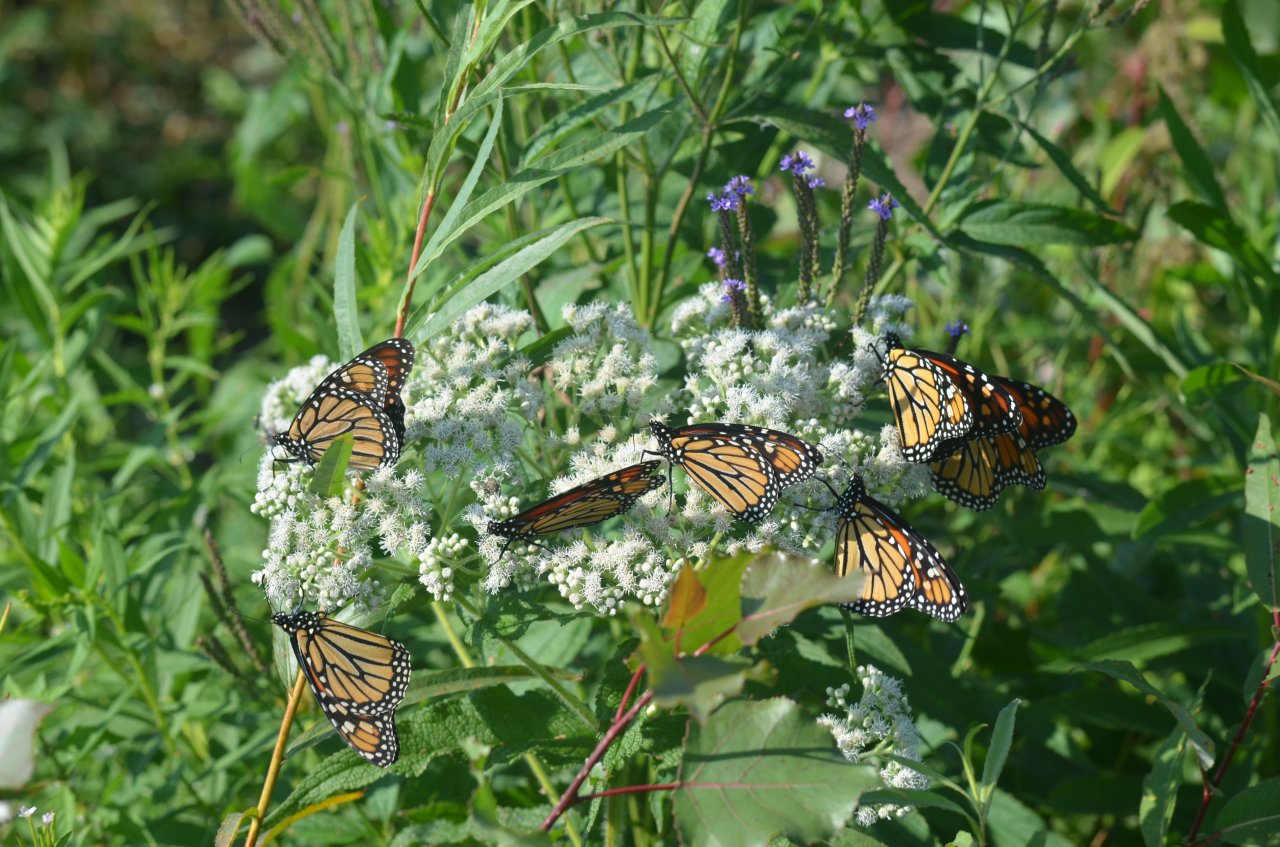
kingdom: Animalia
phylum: Arthropoda
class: Insecta
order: Lepidoptera
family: Nymphalidae
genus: Danaus
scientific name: Danaus plexippus
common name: Monarch
